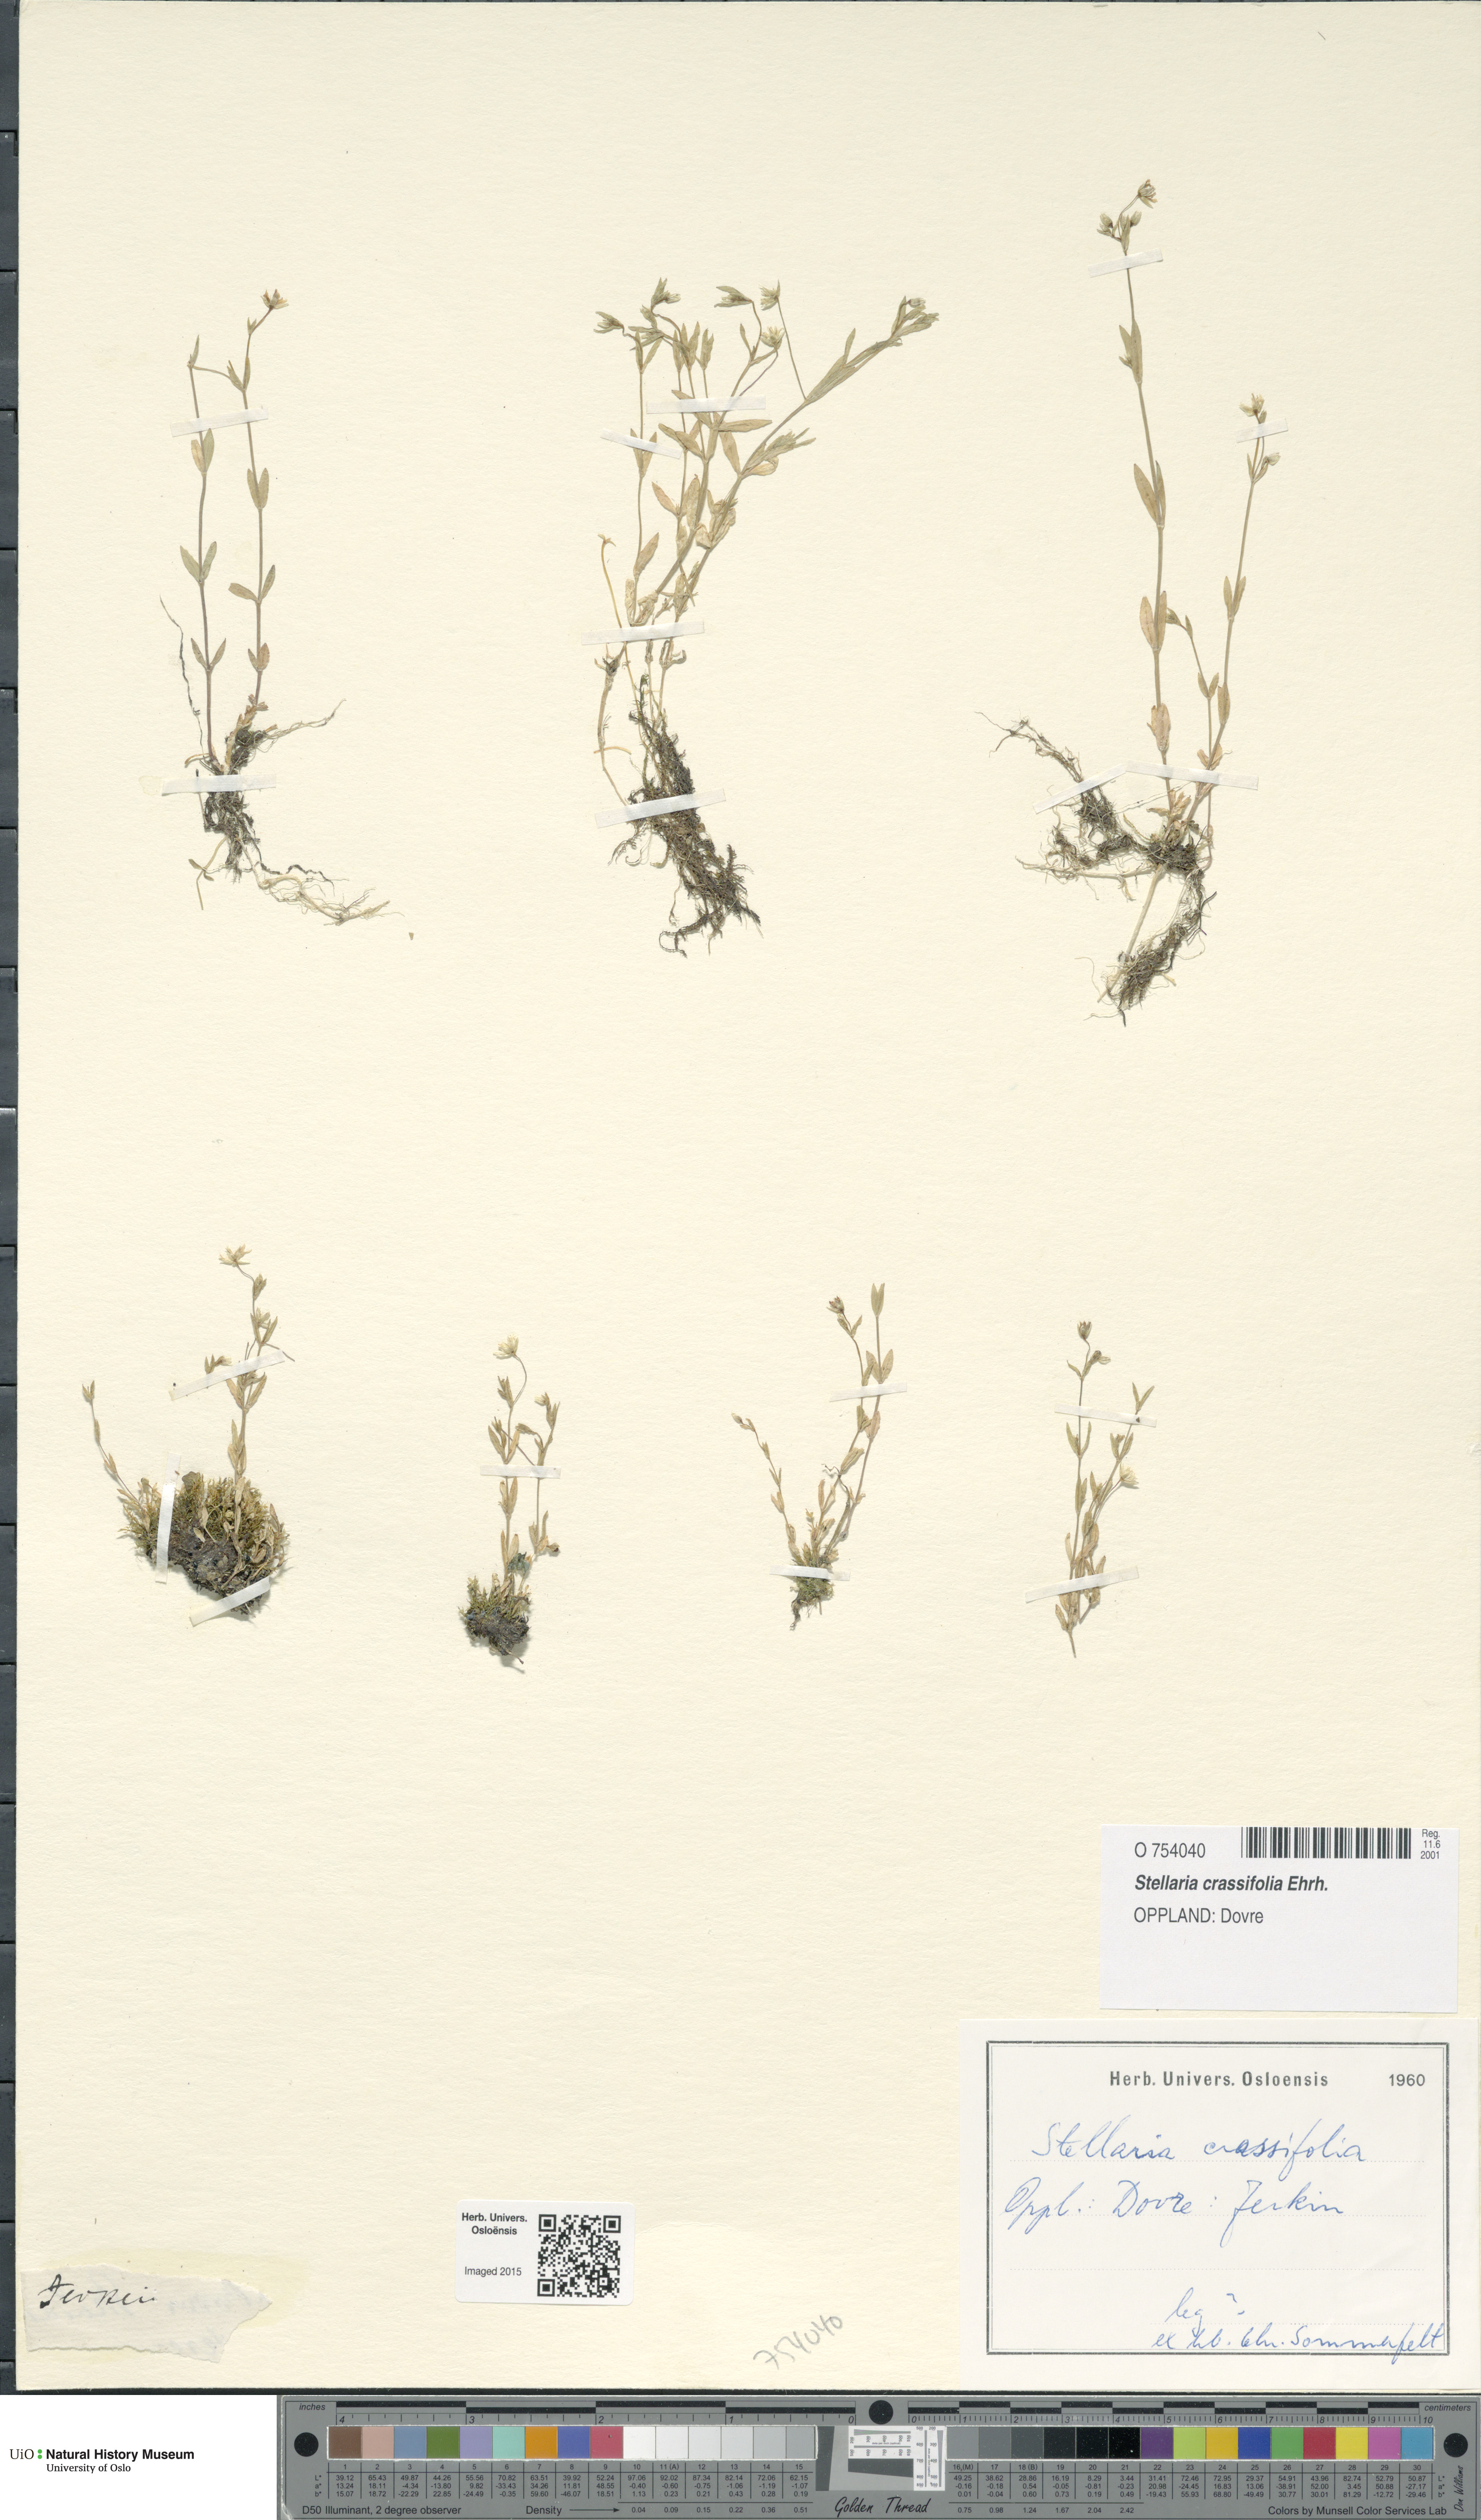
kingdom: Plantae
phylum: Tracheophyta
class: Magnoliopsida
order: Caryophyllales
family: Caryophyllaceae
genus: Stellaria
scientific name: Stellaria crassifolia
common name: Fleshy starwort
